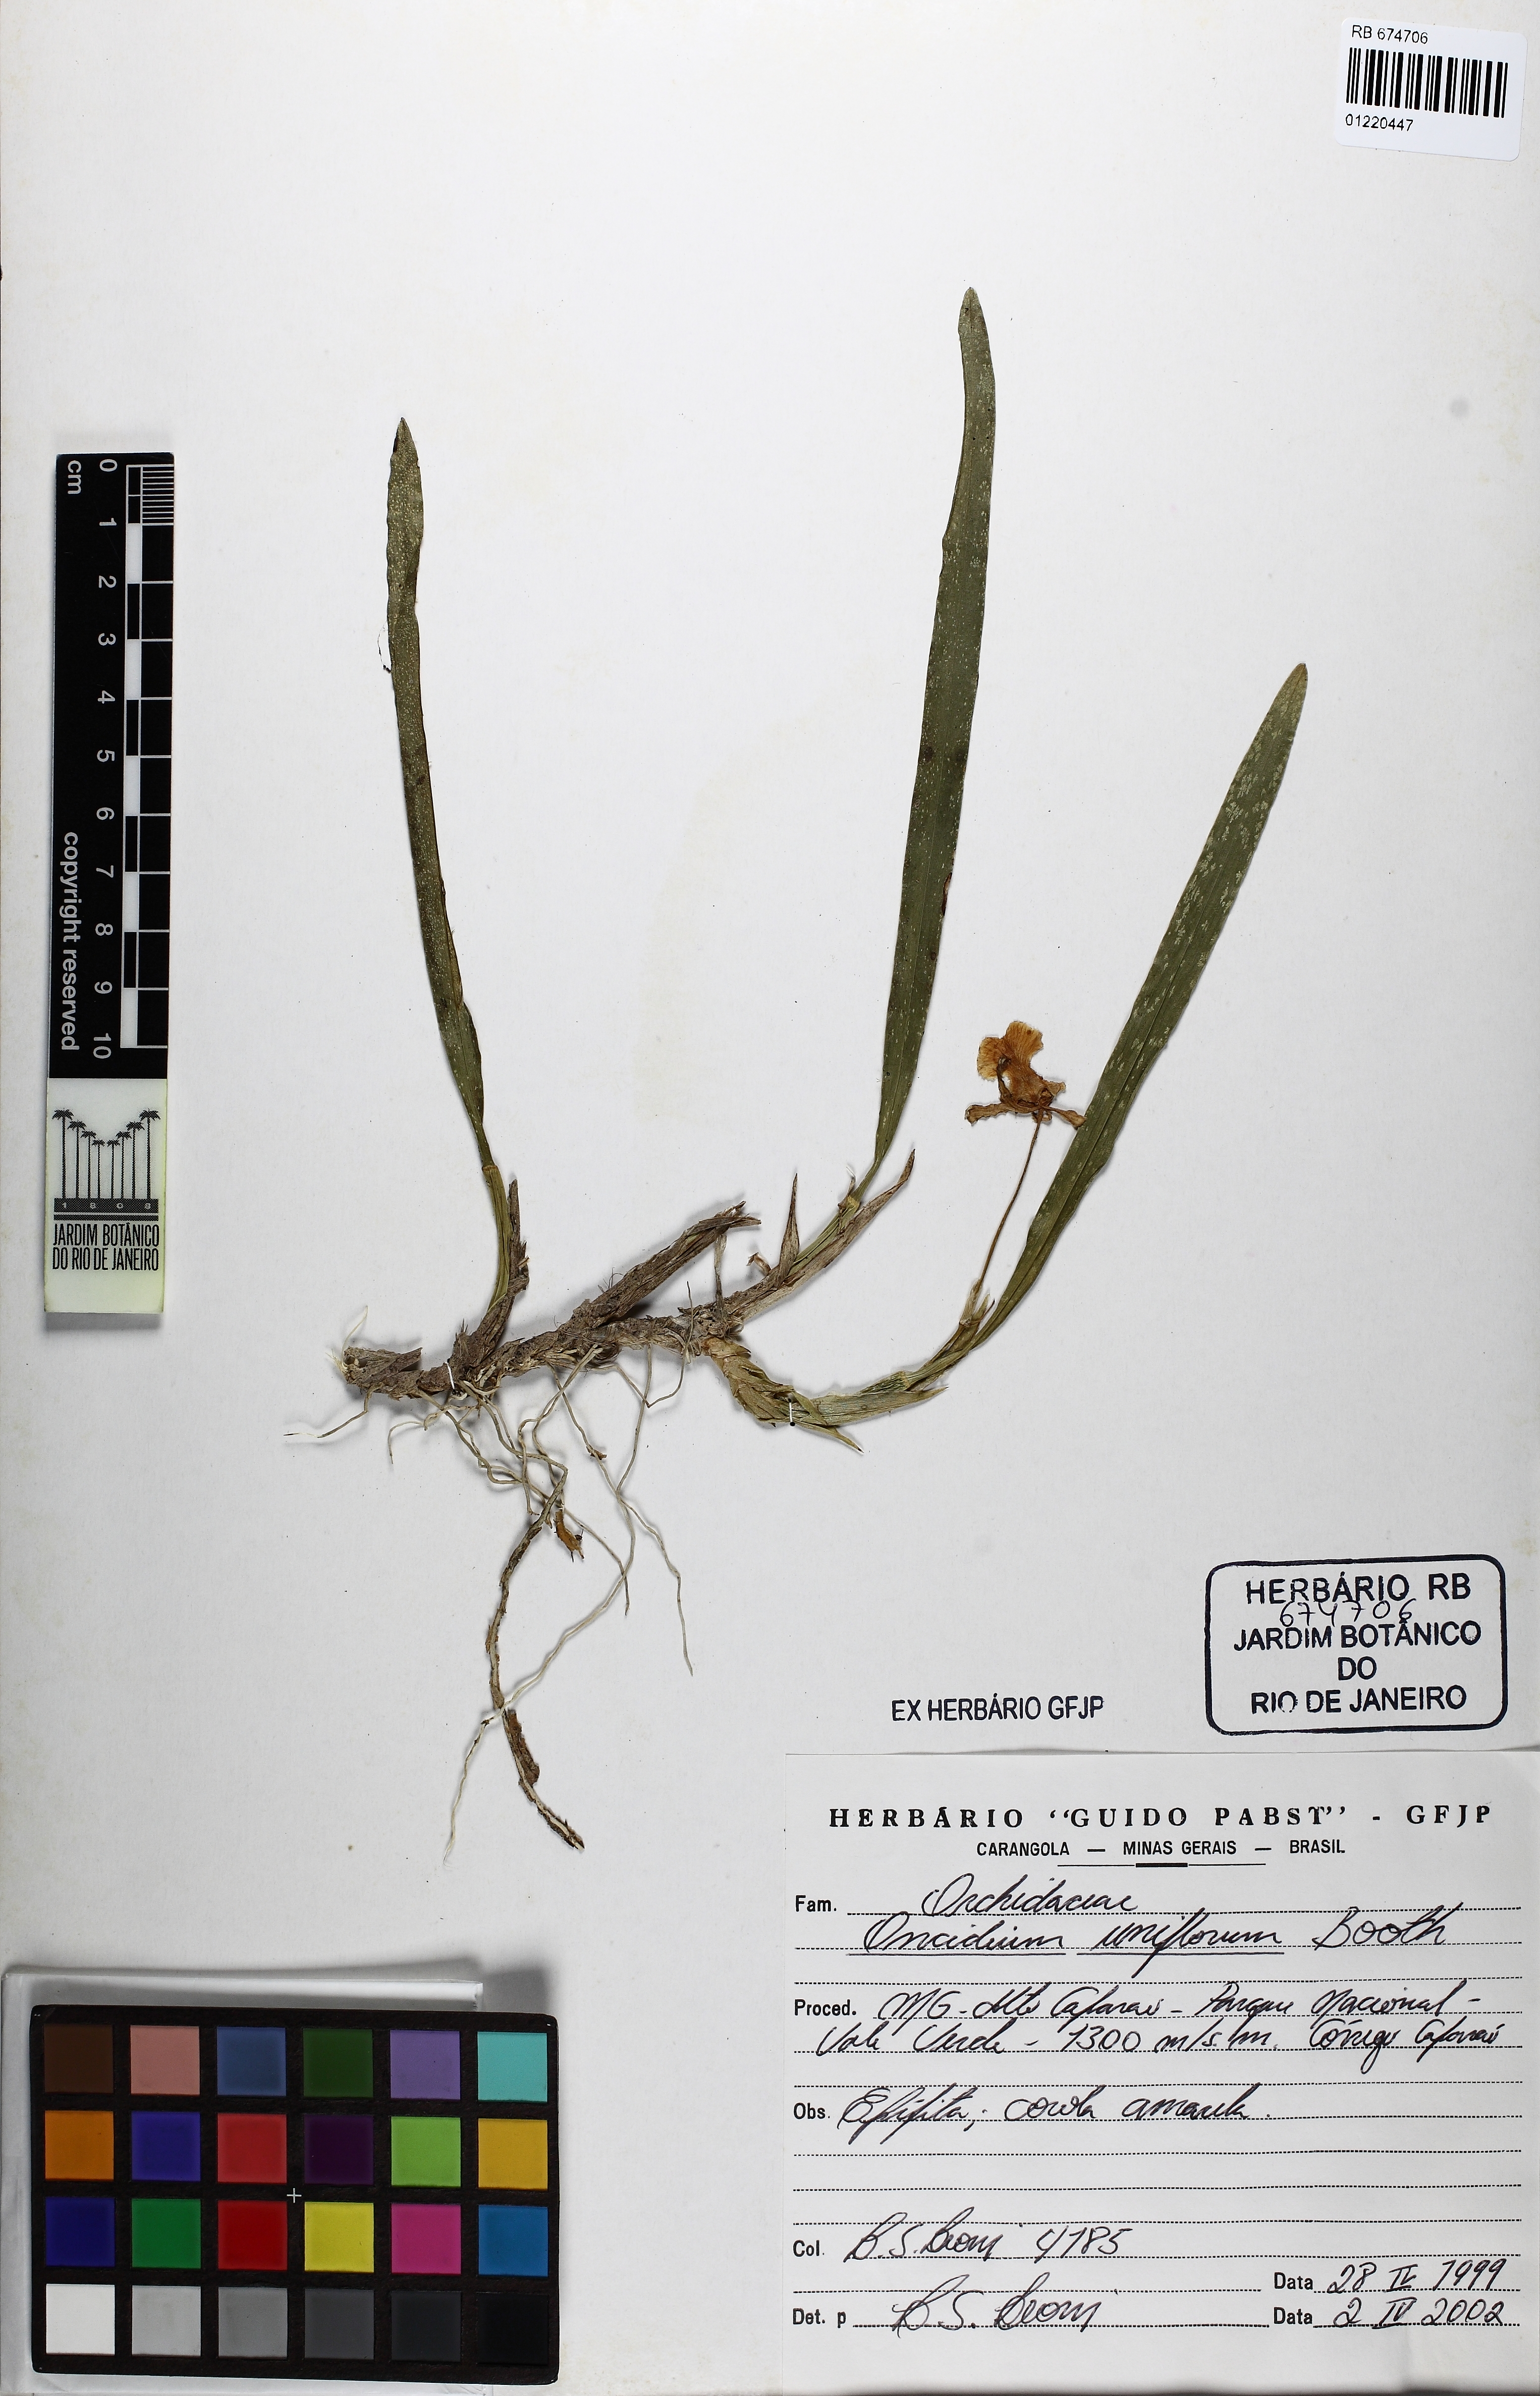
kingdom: Plantae
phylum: Tracheophyta
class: Liliopsida
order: Asparagales
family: Orchidaceae
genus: Gomesa
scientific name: Gomesa uniflora
